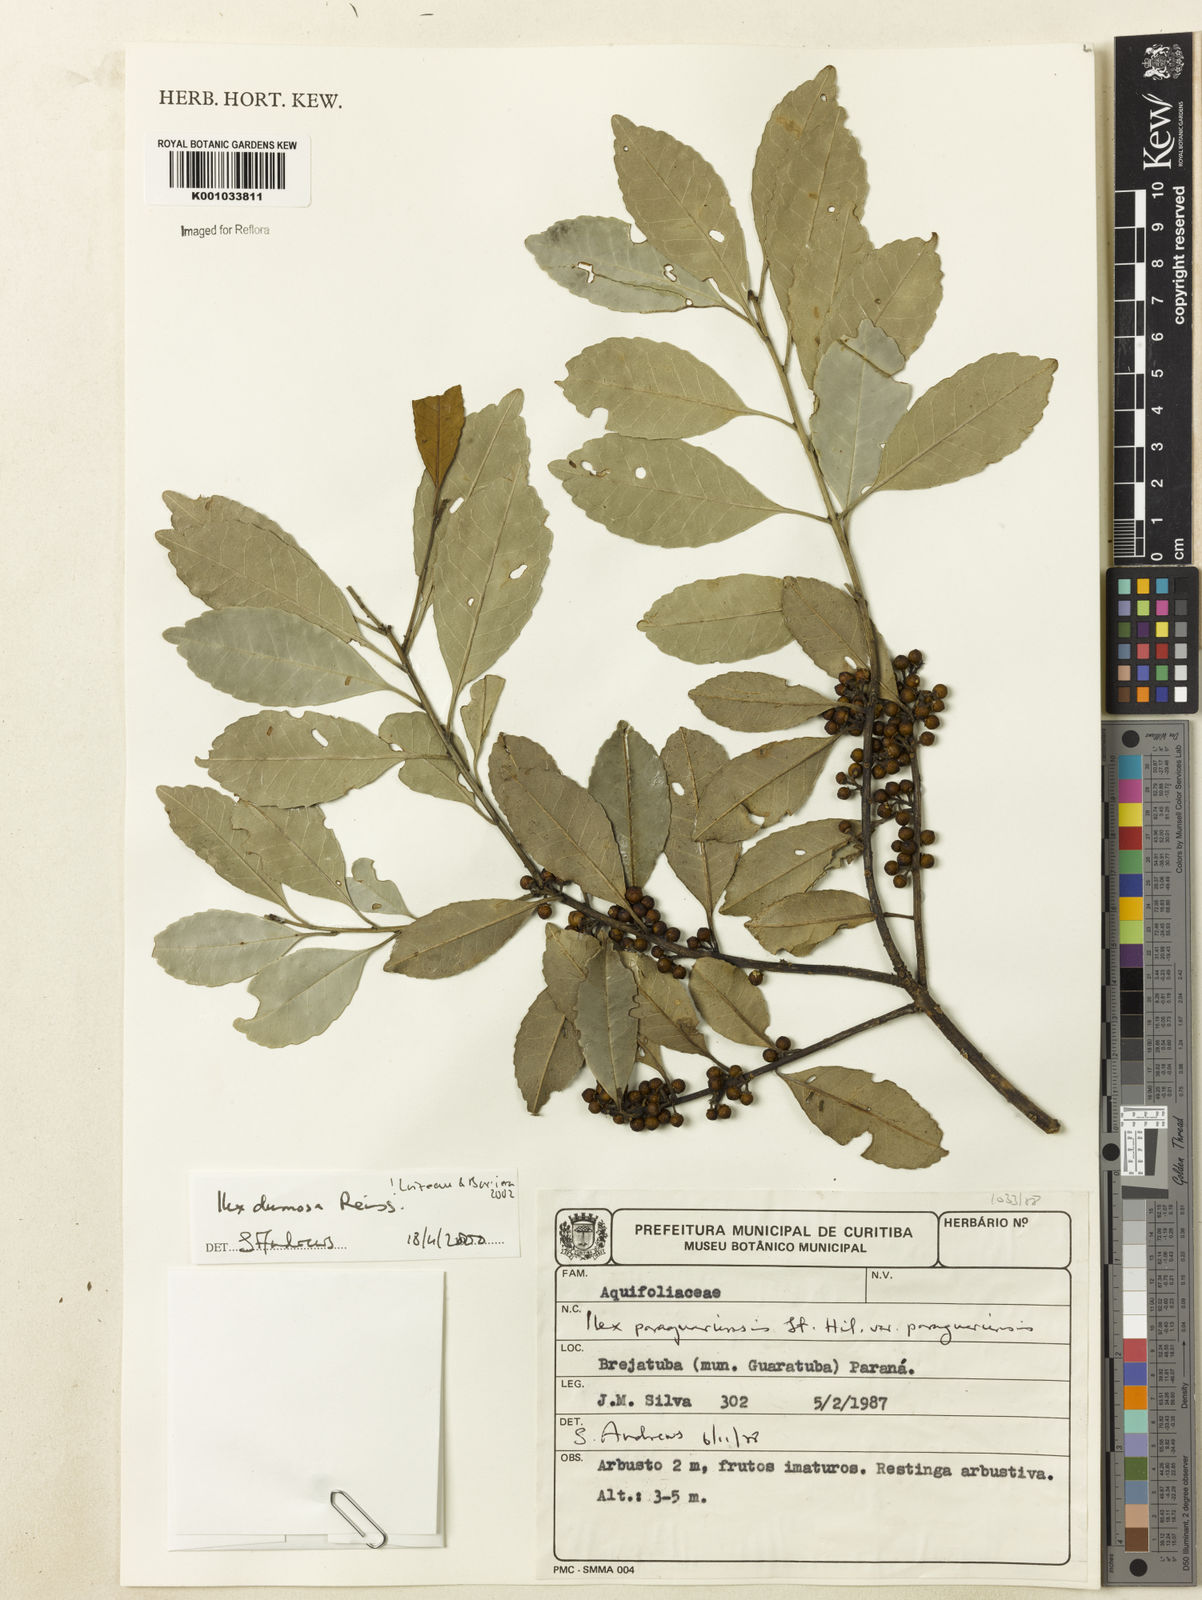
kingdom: Plantae
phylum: Tracheophyta
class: Magnoliopsida
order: Aquifoliales
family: Aquifoliaceae
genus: Ilex
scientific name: Ilex dumosa
